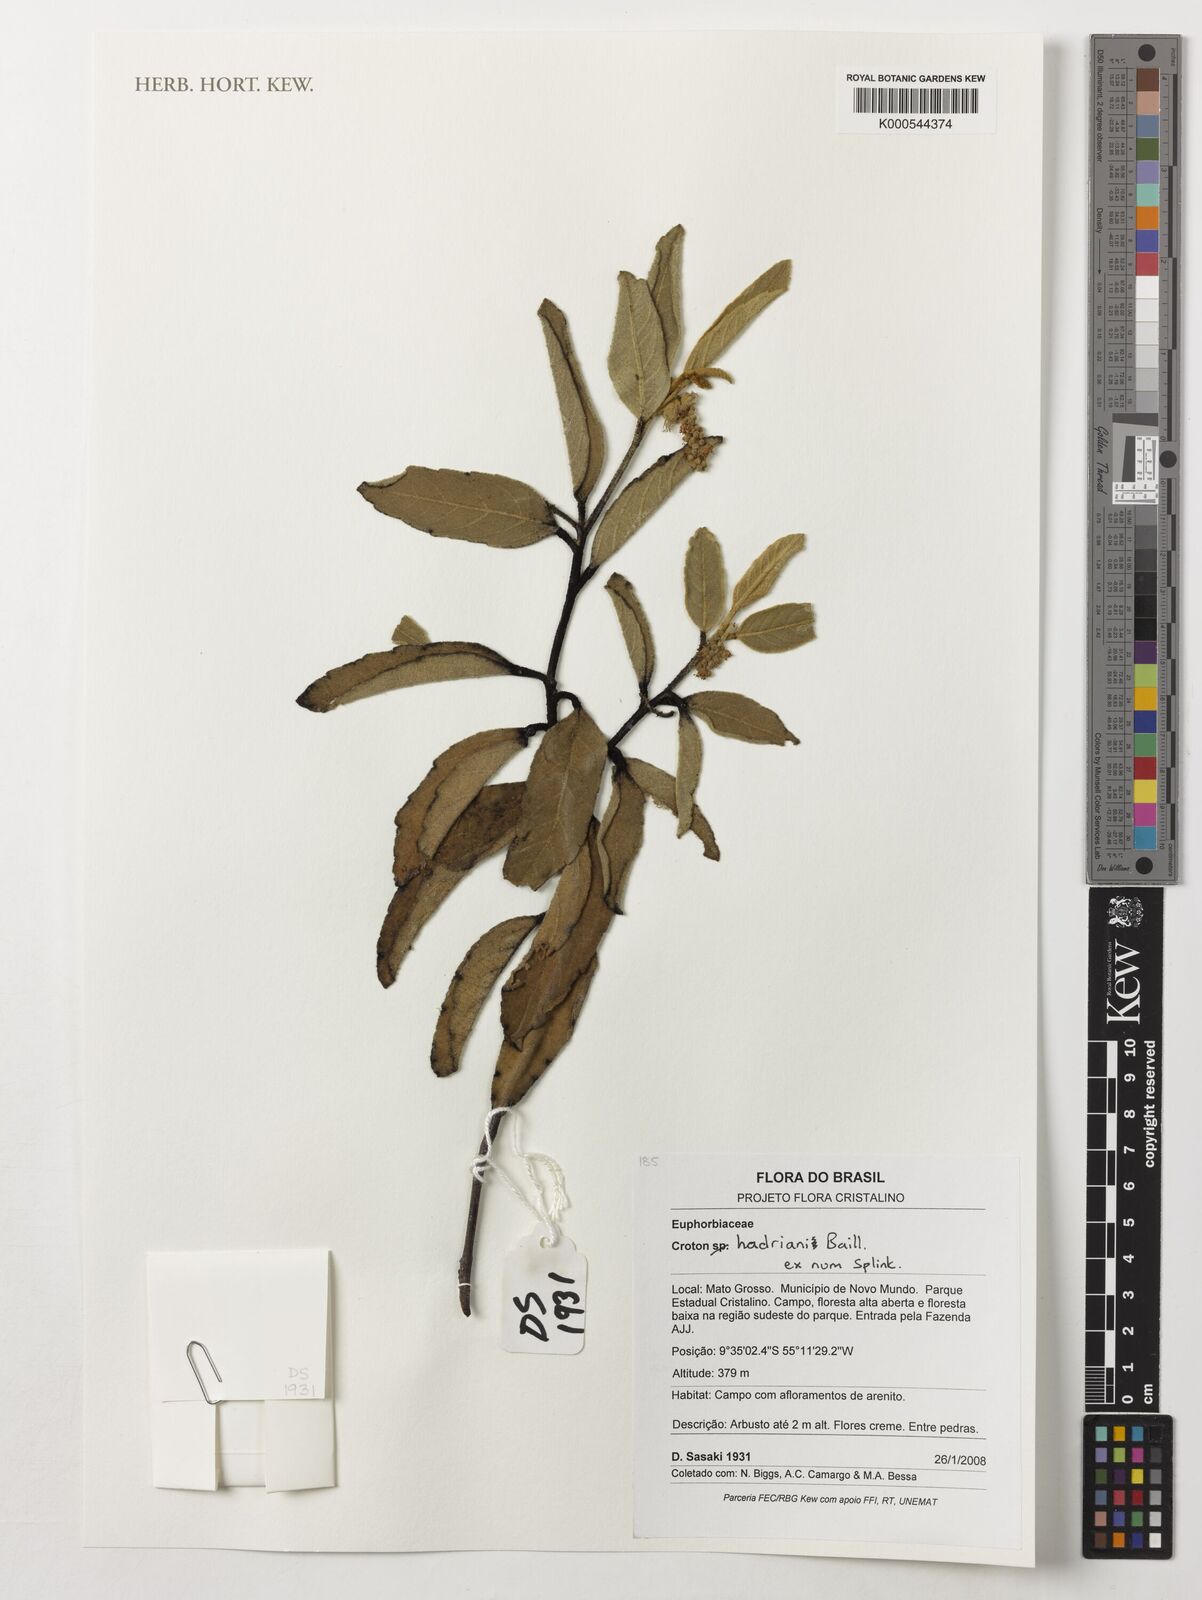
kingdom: Plantae
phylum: Tracheophyta
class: Magnoliopsida
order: Malpighiales
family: Euphorbiaceae
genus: Croton
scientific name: Croton hadriani
